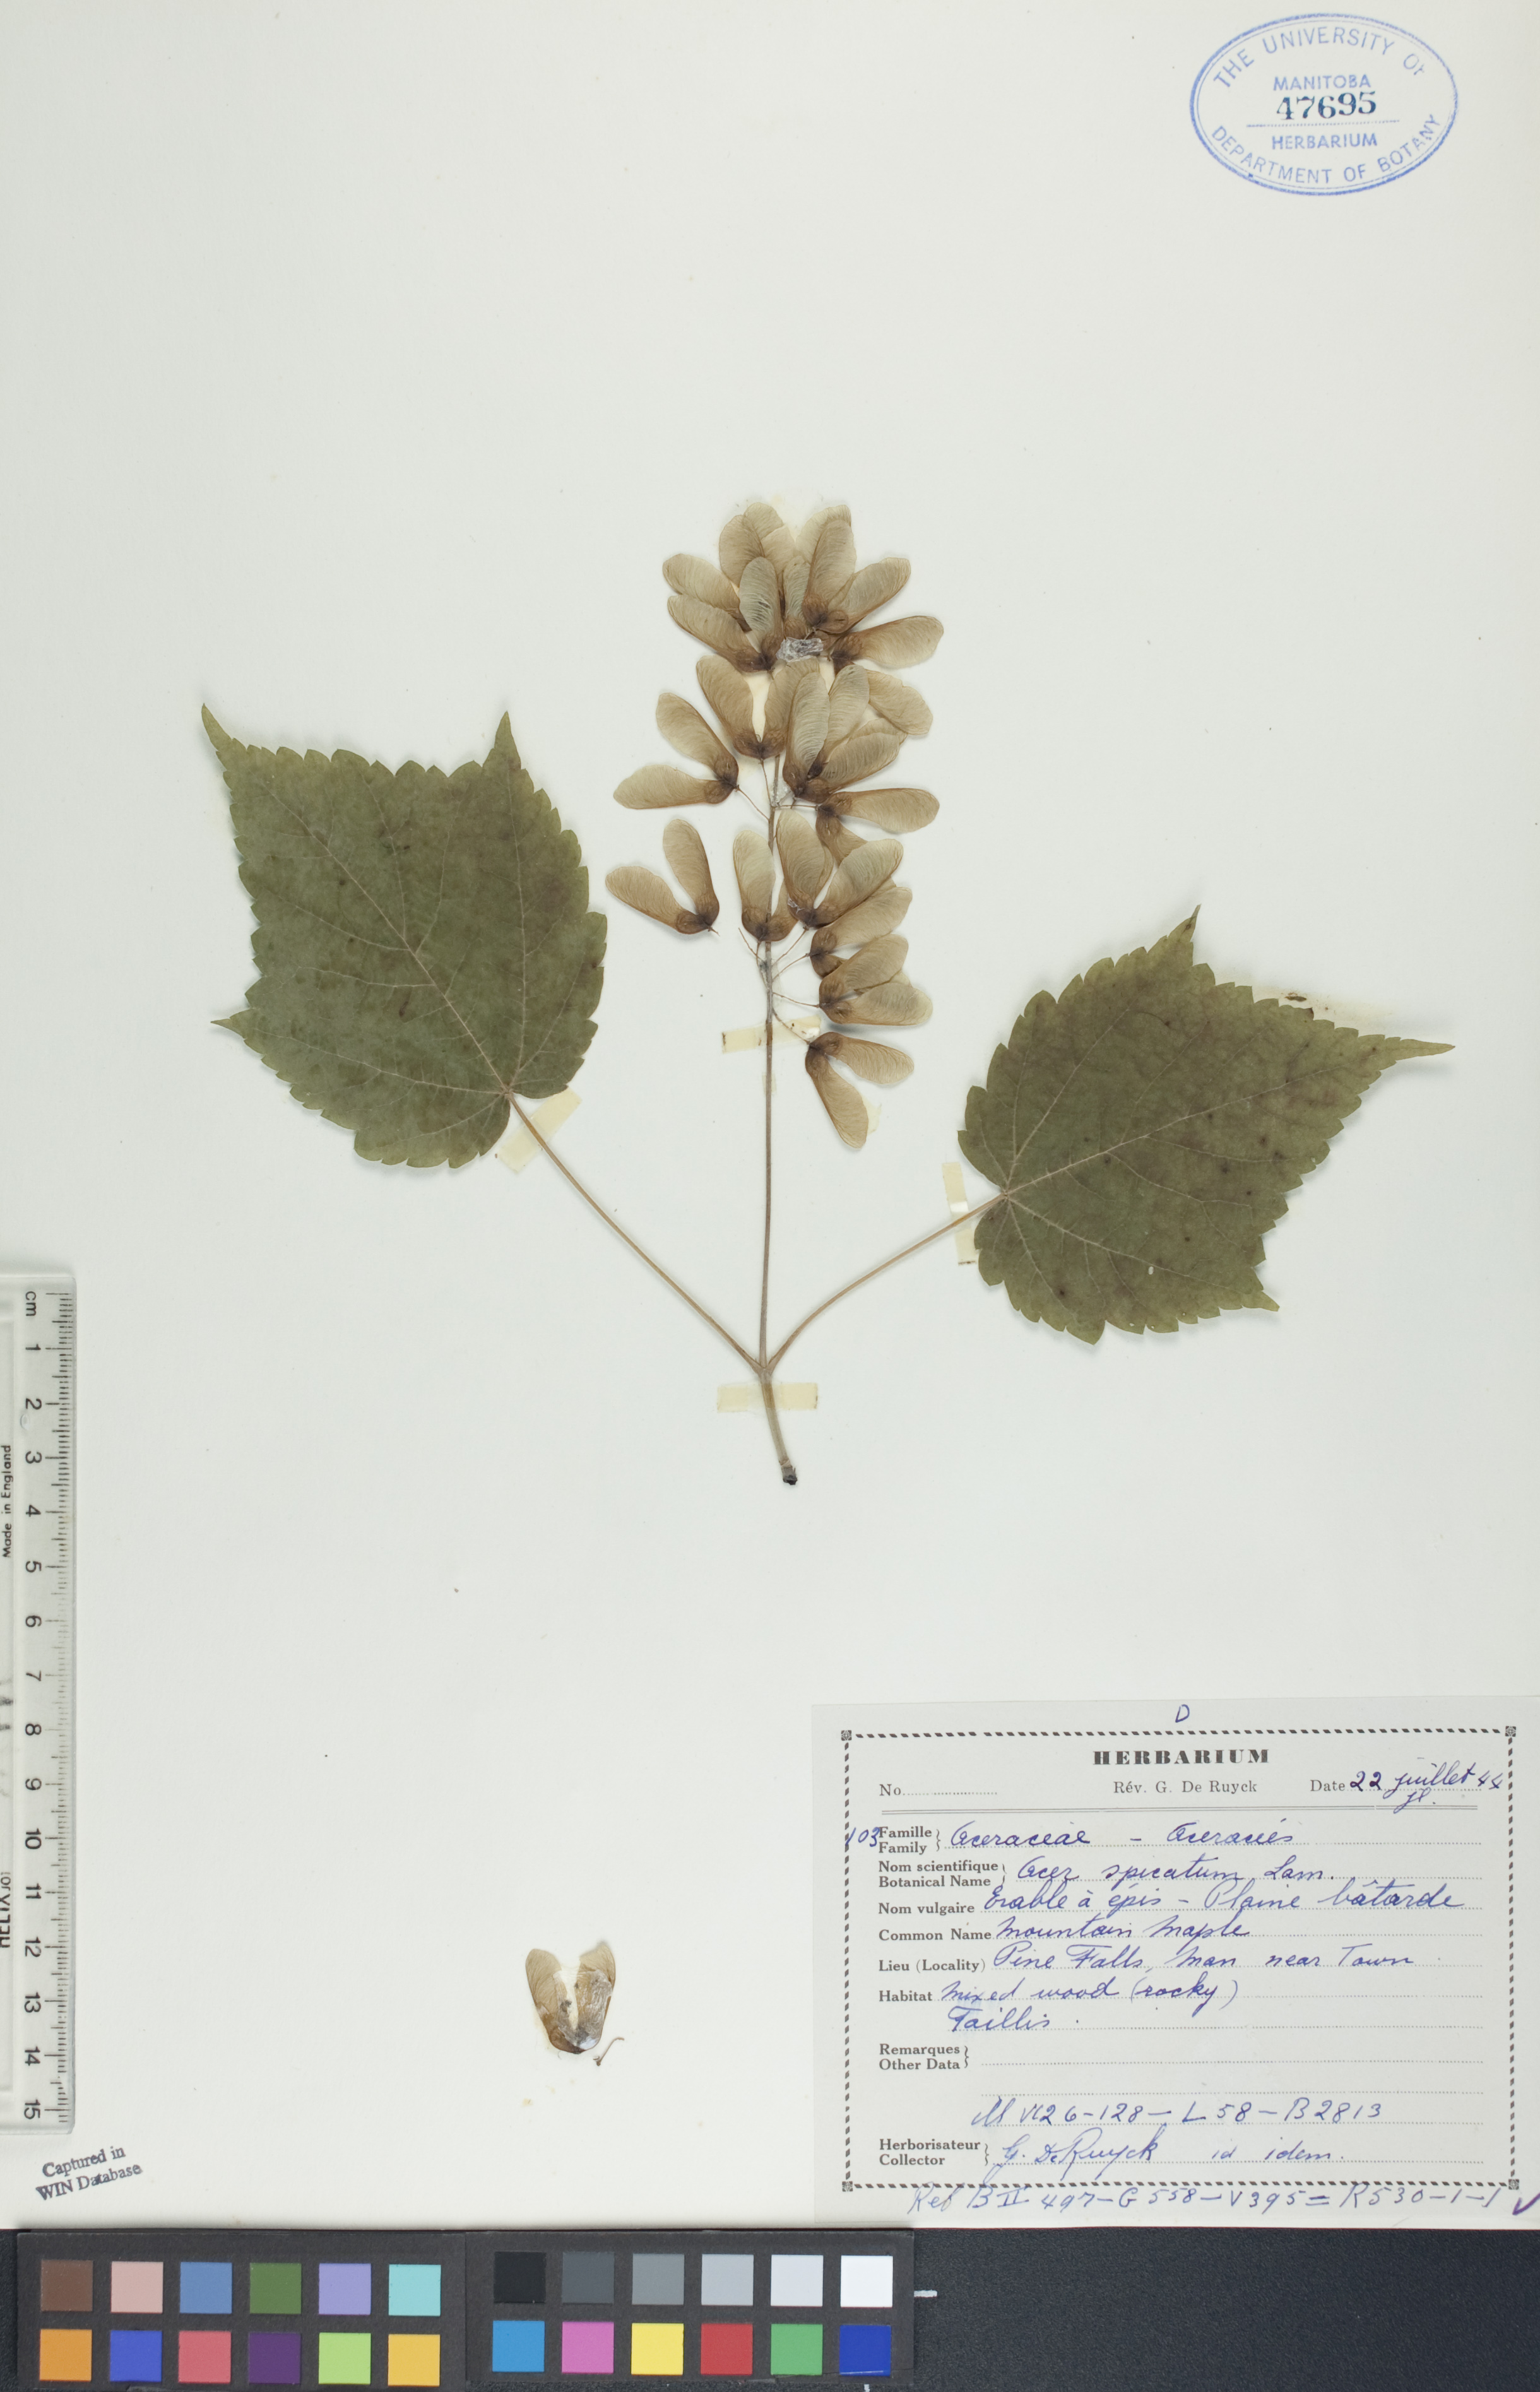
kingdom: Plantae
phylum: Tracheophyta
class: Magnoliopsida
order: Sapindales
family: Sapindaceae
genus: Acer
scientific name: Acer spicatum
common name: Mountain maple
